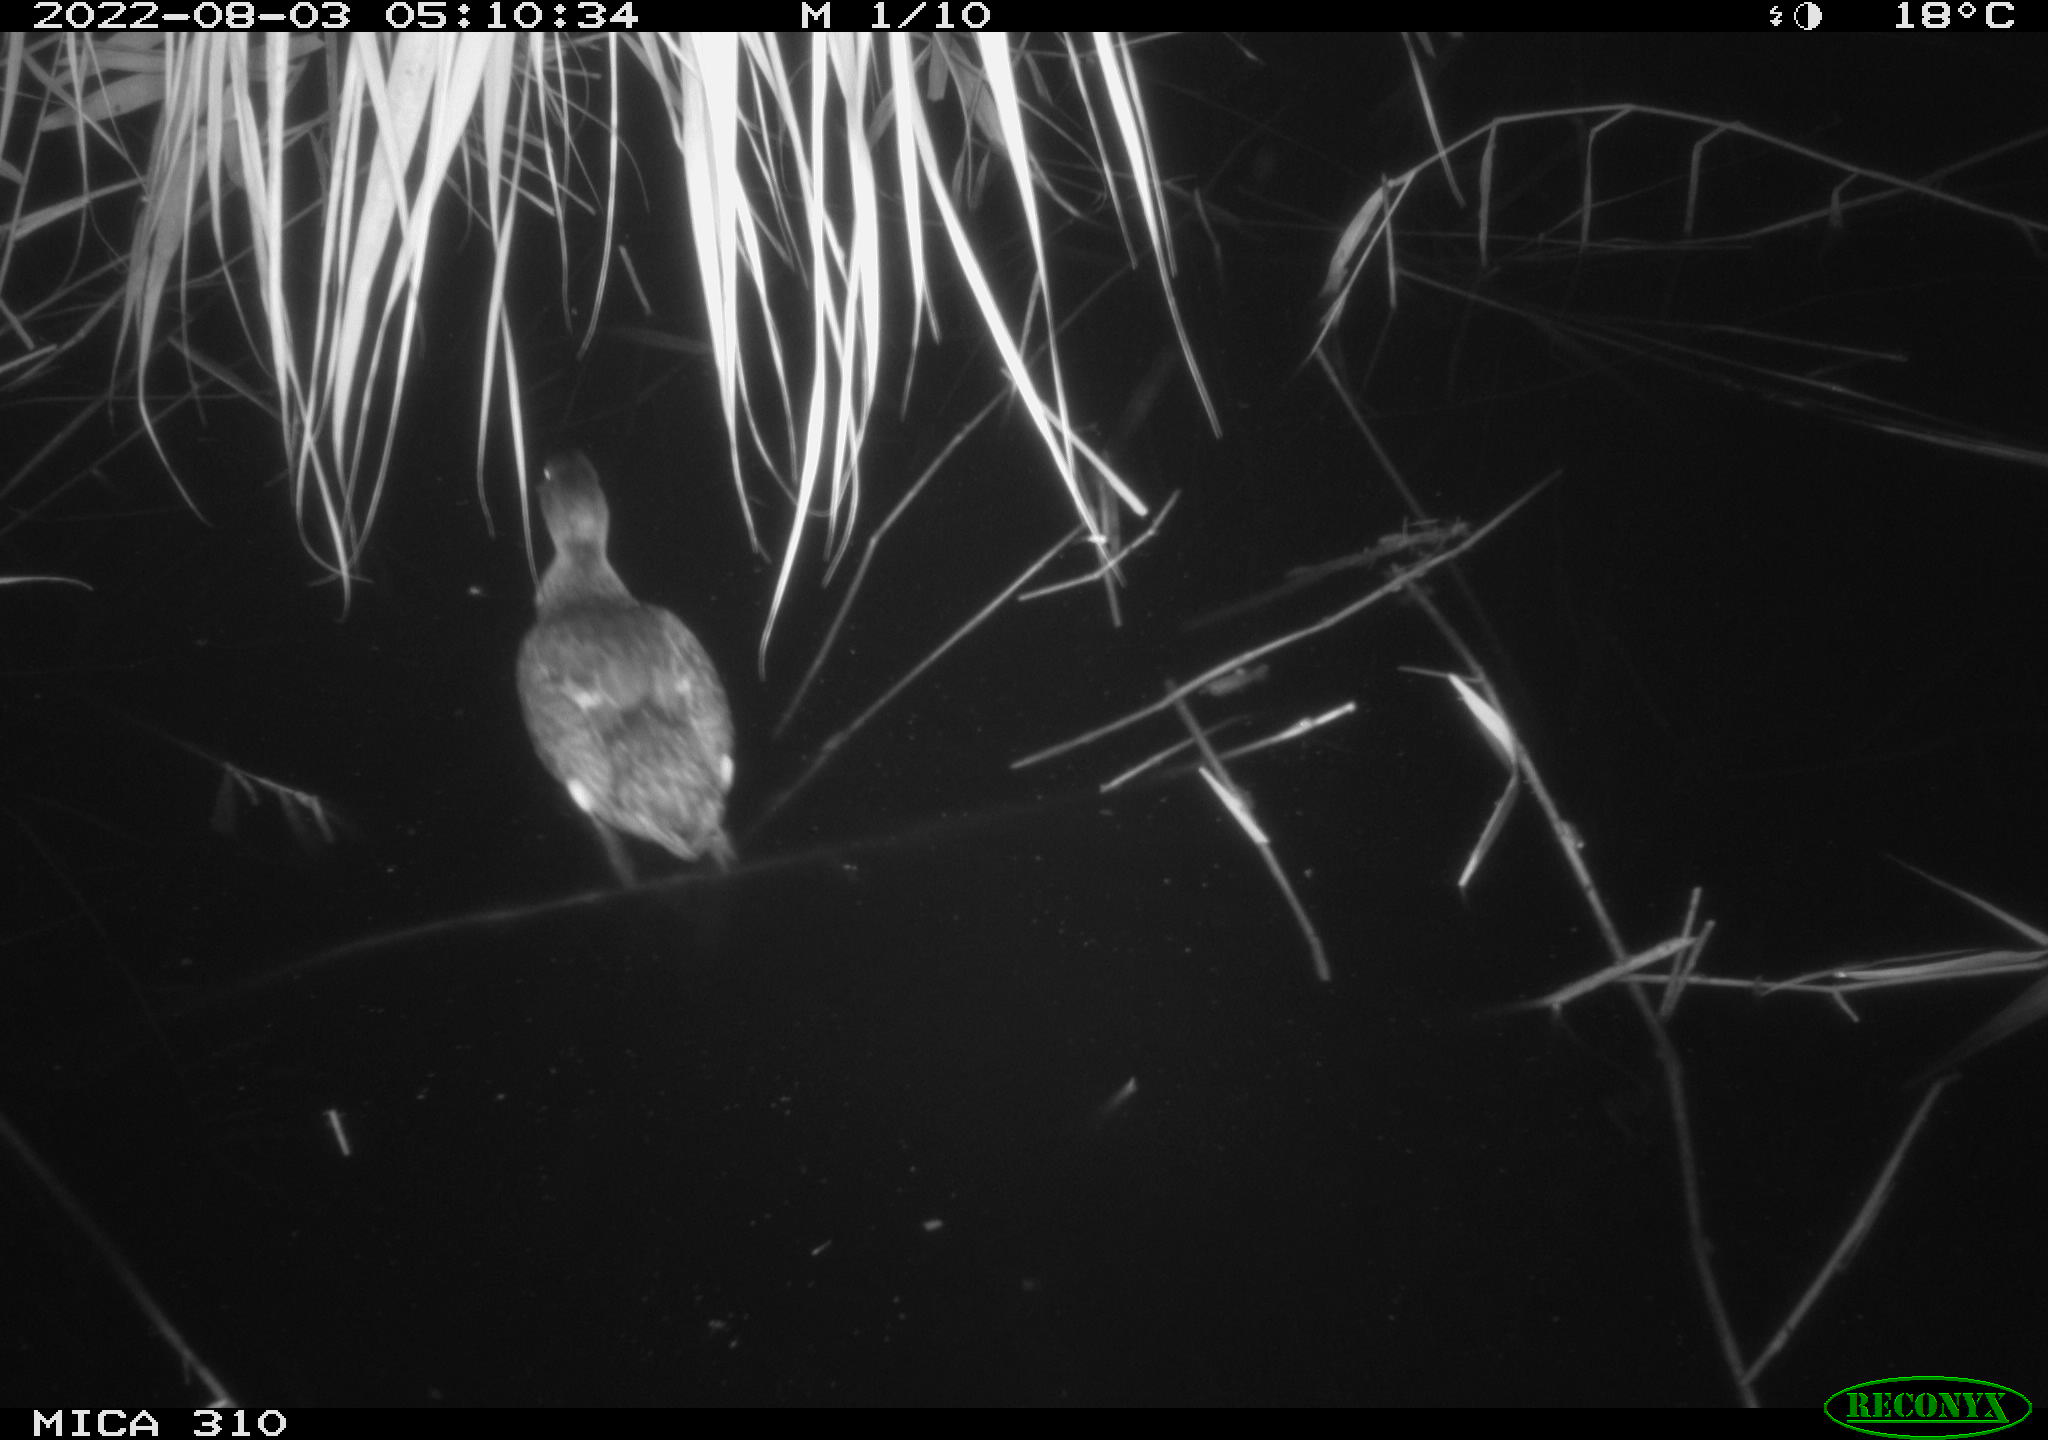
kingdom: Animalia
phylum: Chordata
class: Aves
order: Anseriformes
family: Anatidae
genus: Anas
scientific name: Anas platyrhynchos
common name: Mallard
